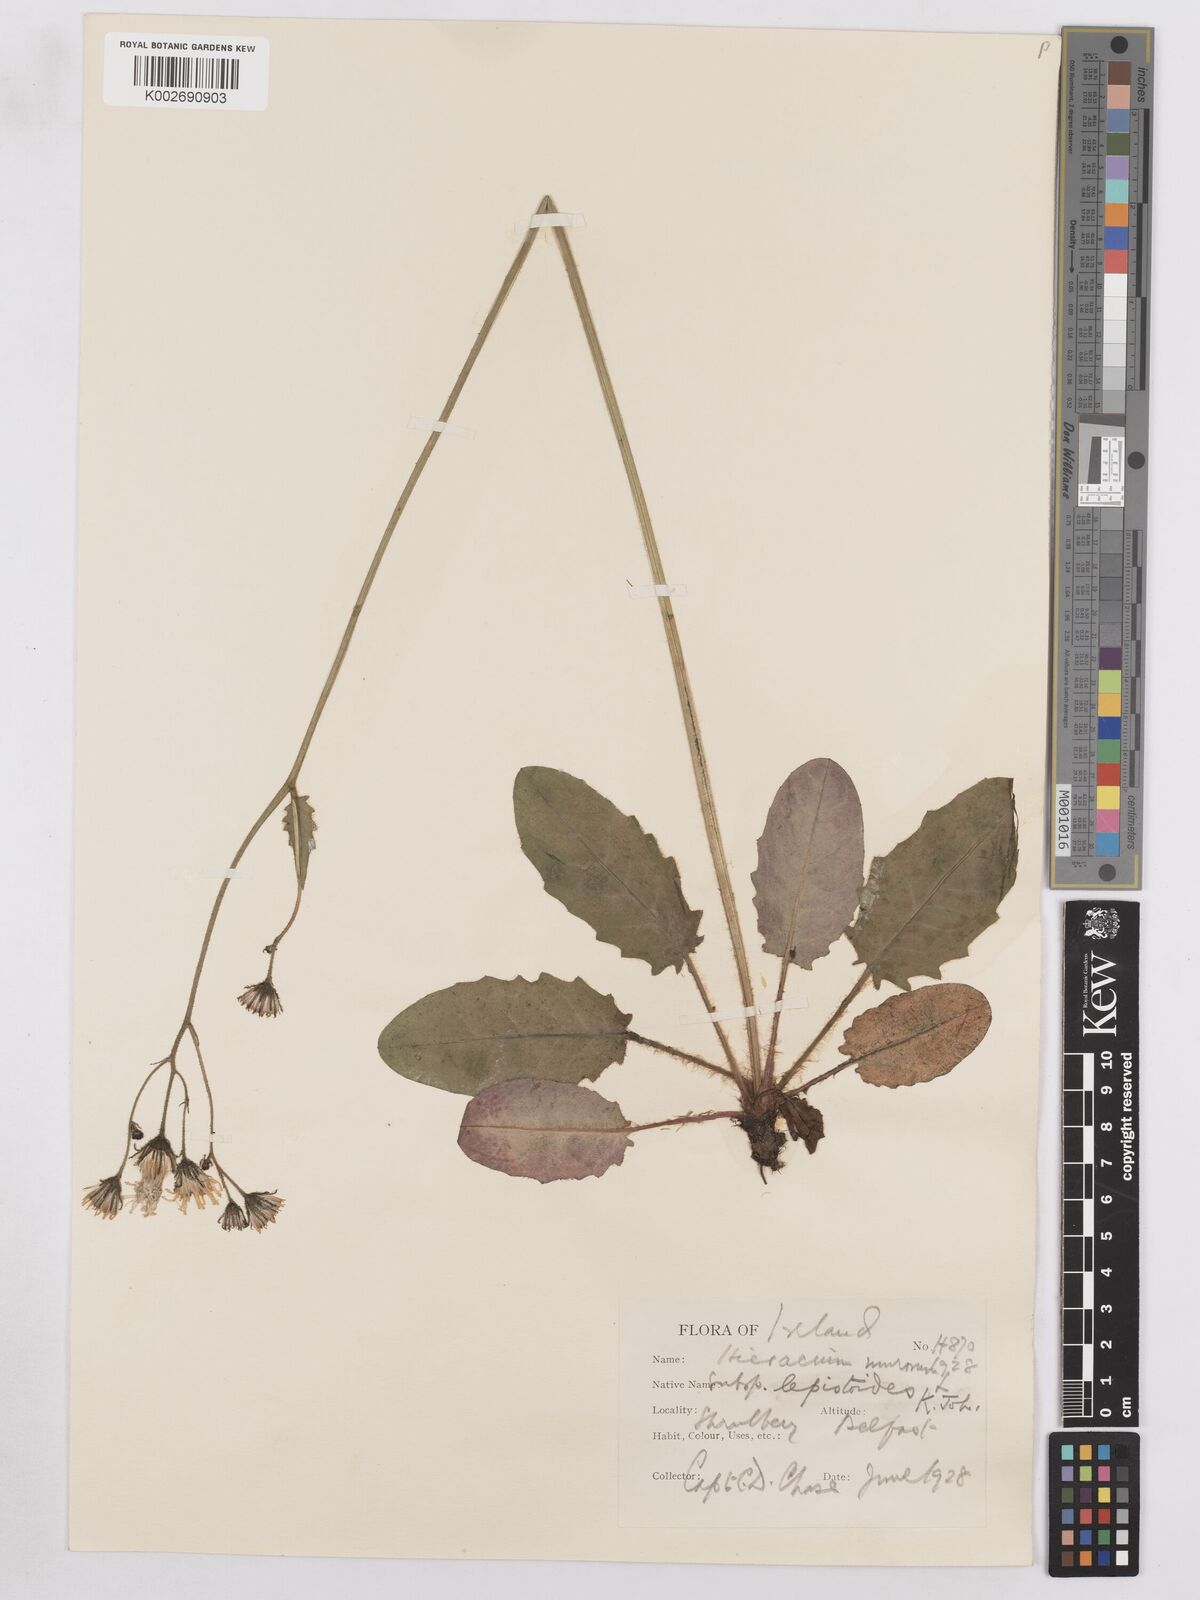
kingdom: Plantae
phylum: Tracheophyta
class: Magnoliopsida
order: Asterales
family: Asteraceae
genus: Hieracium
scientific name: Hieracium murorum
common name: Wall hawkweed
